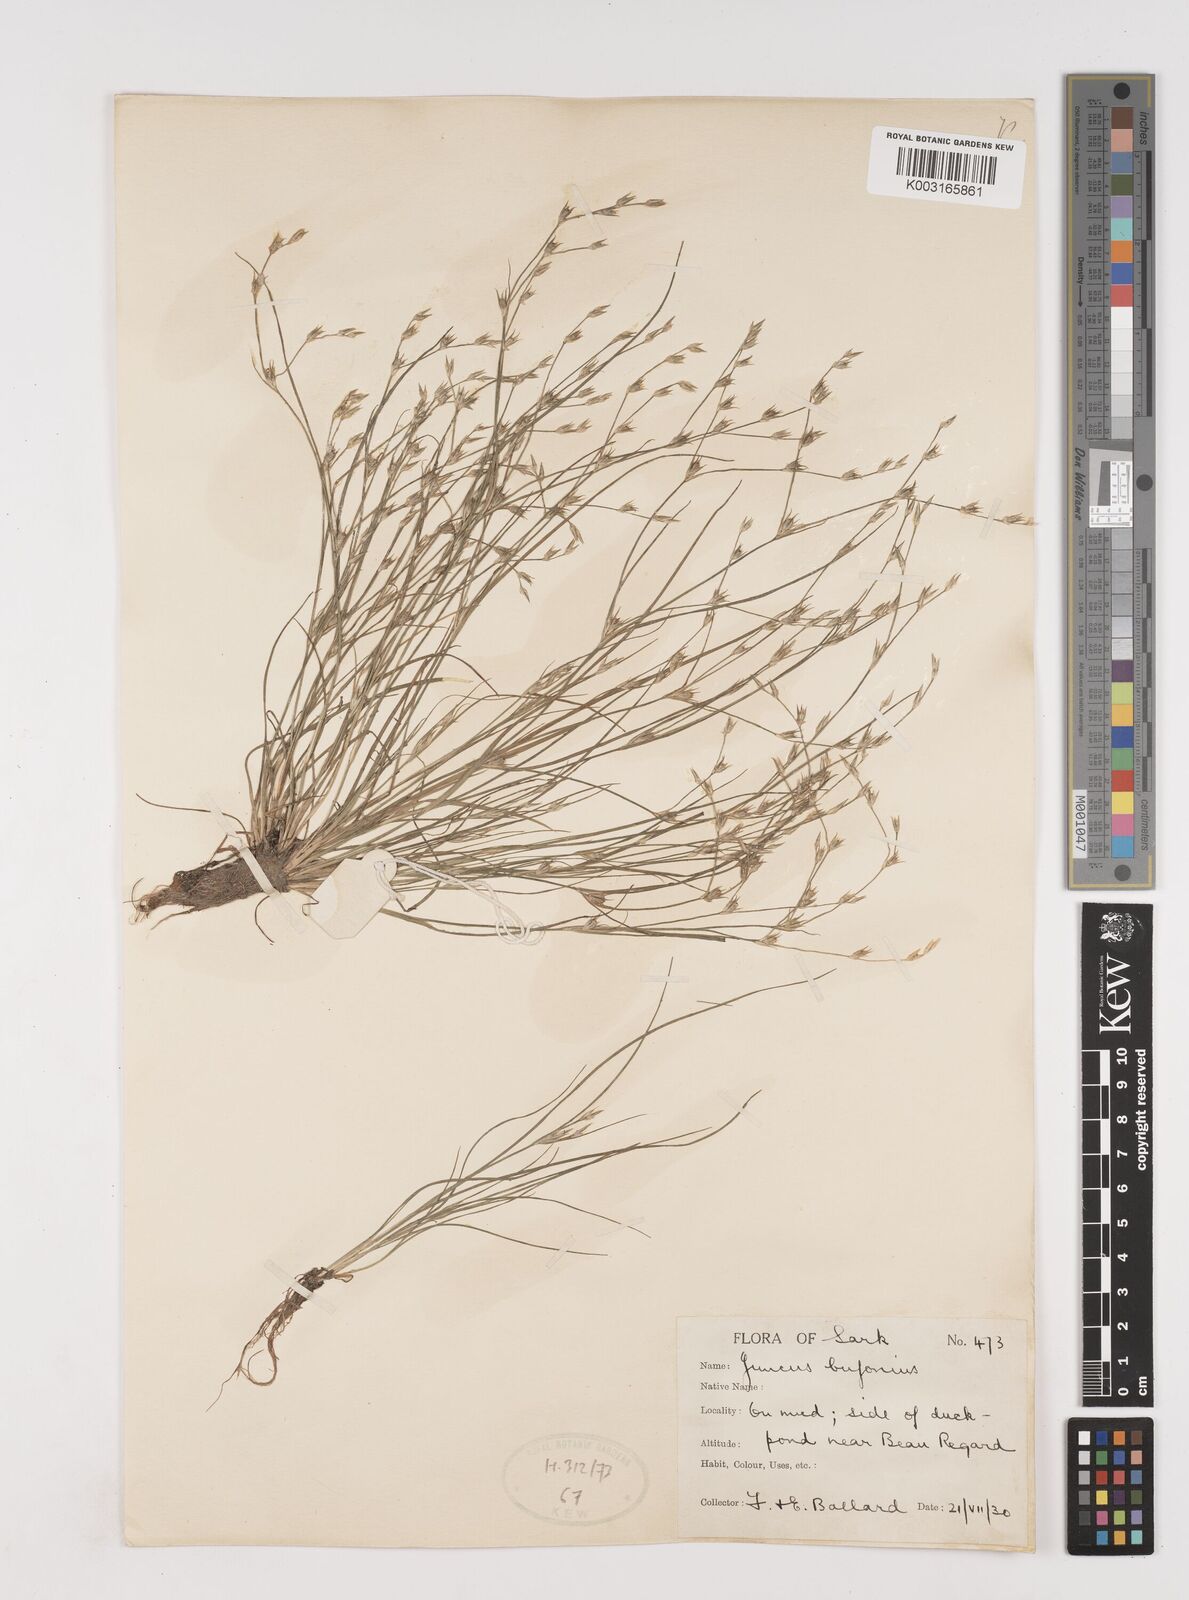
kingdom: Plantae
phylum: Tracheophyta
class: Liliopsida
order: Poales
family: Juncaceae
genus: Juncus
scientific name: Juncus bufonius
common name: Toad rush
